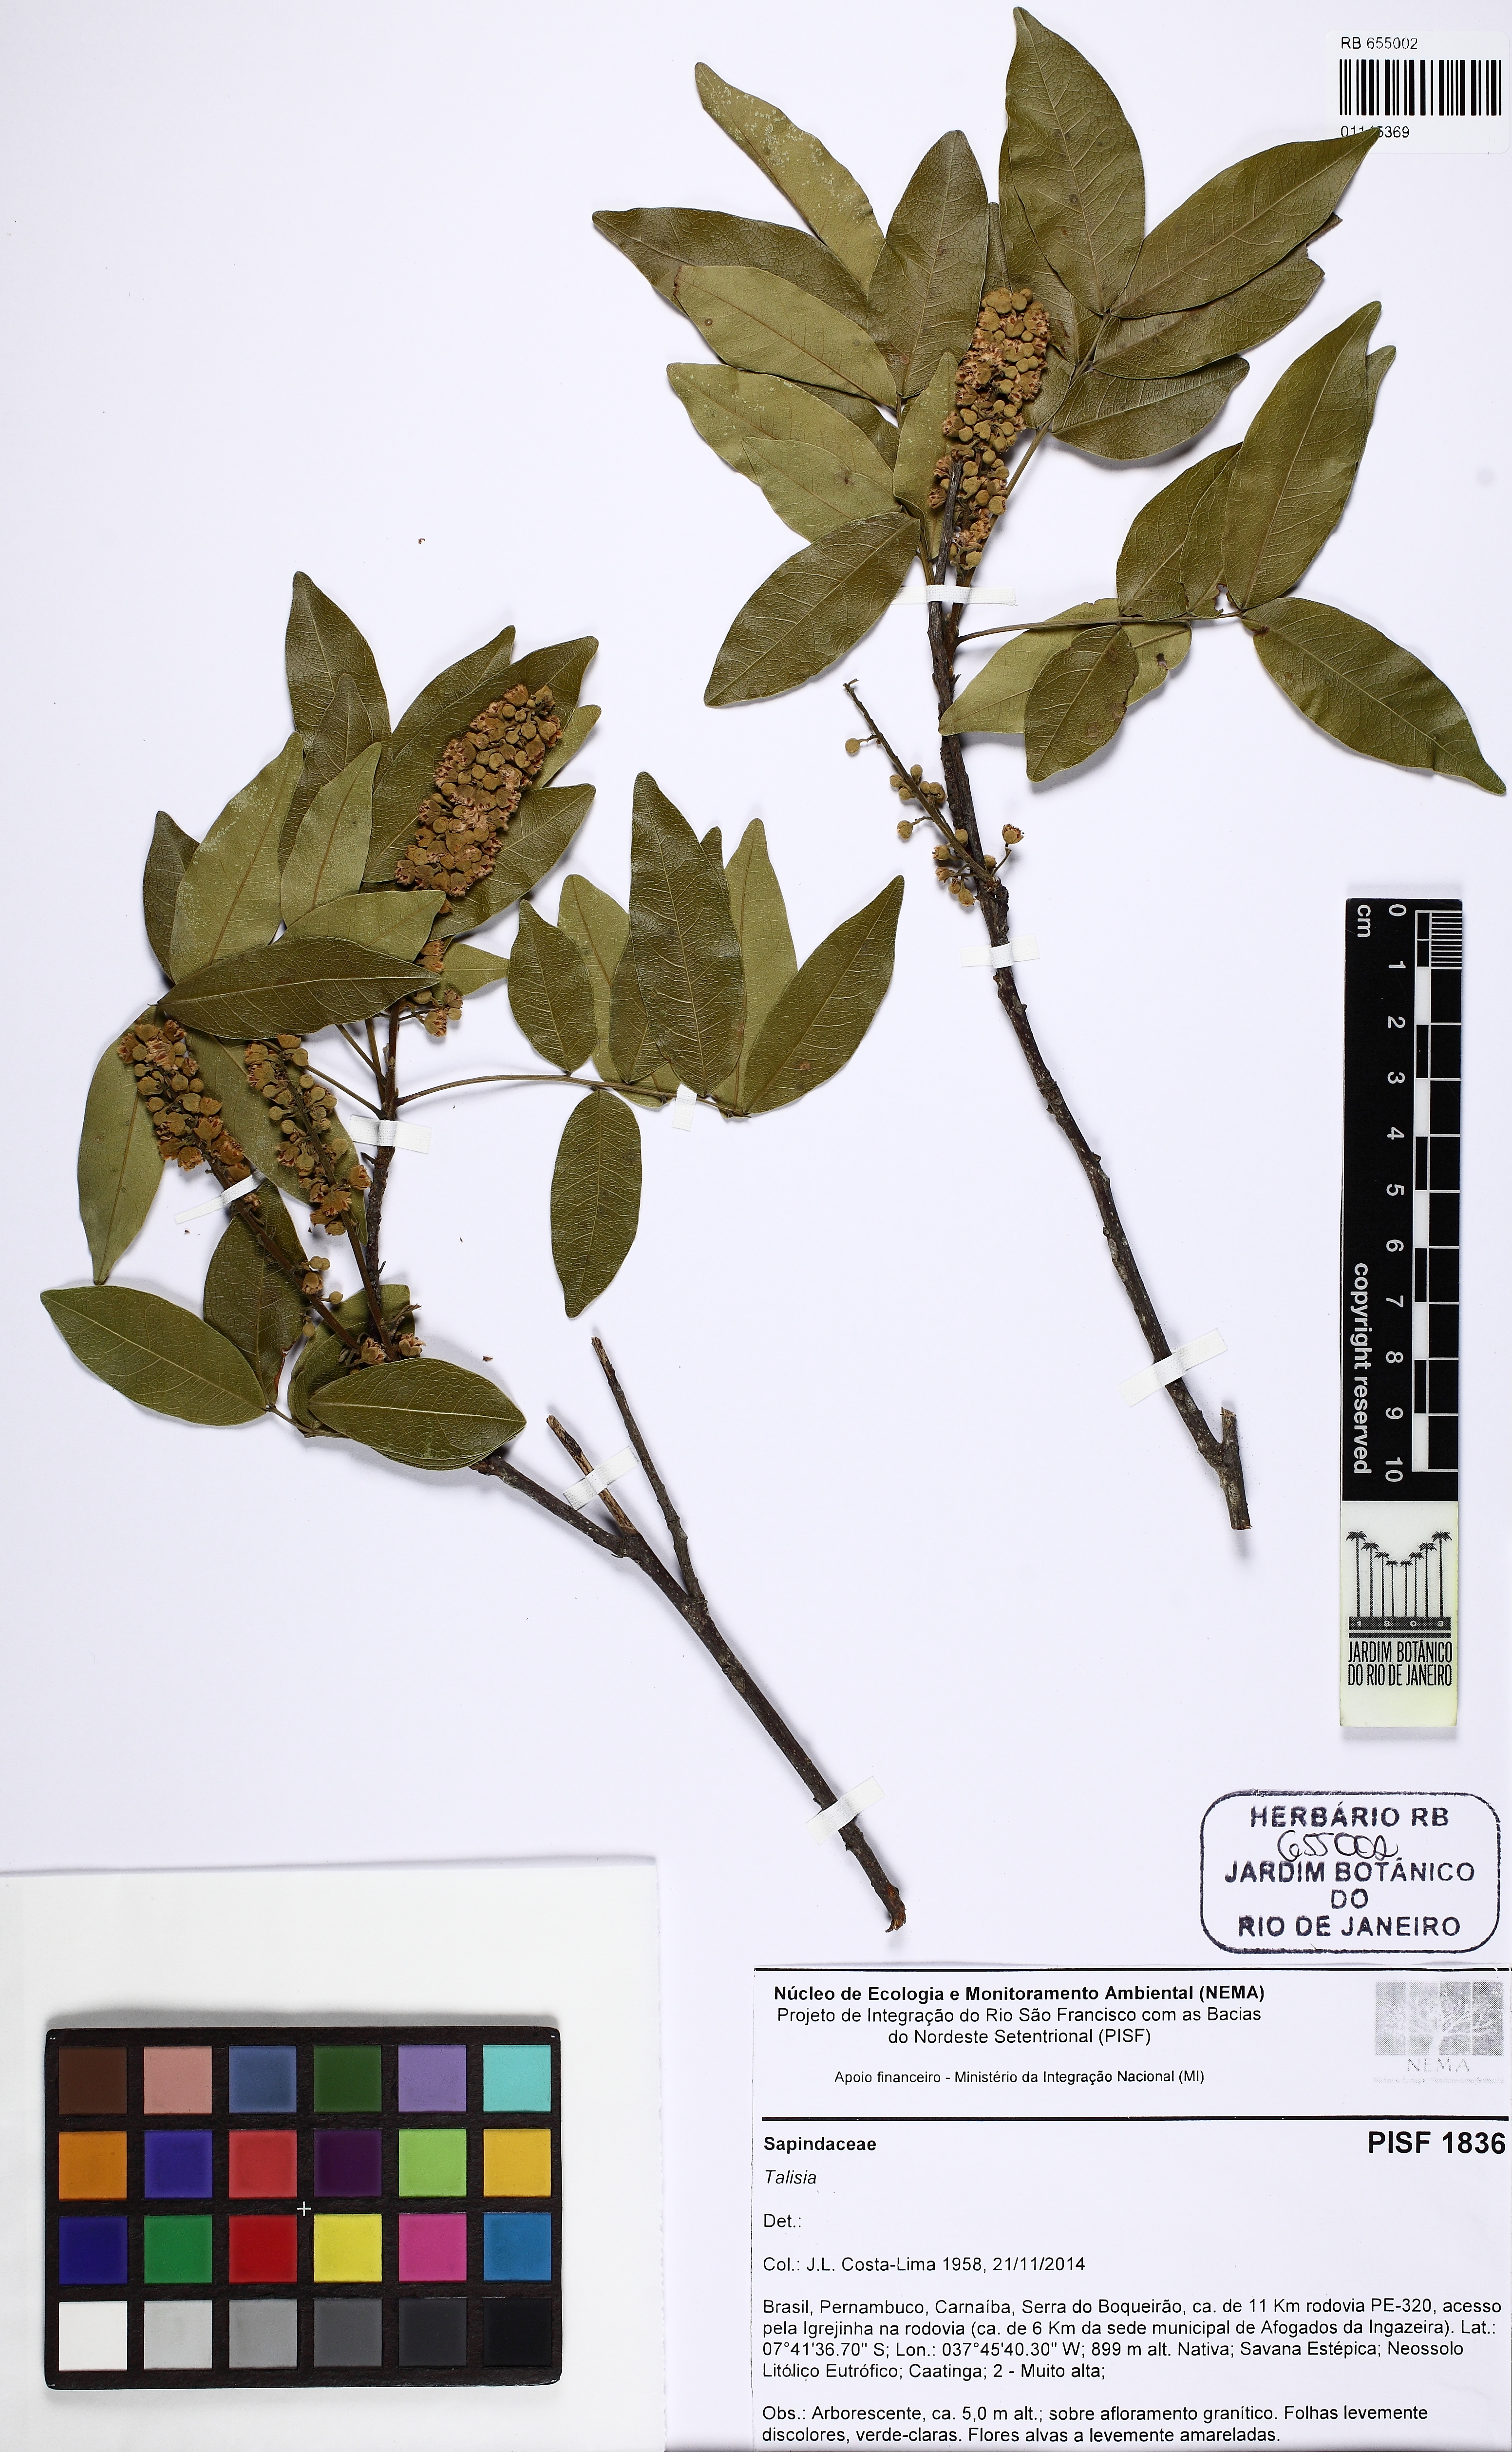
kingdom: Plantae
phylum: Tracheophyta
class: Magnoliopsida
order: Sapindales
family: Sapindaceae
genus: Talisia
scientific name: Talisia esculenta
